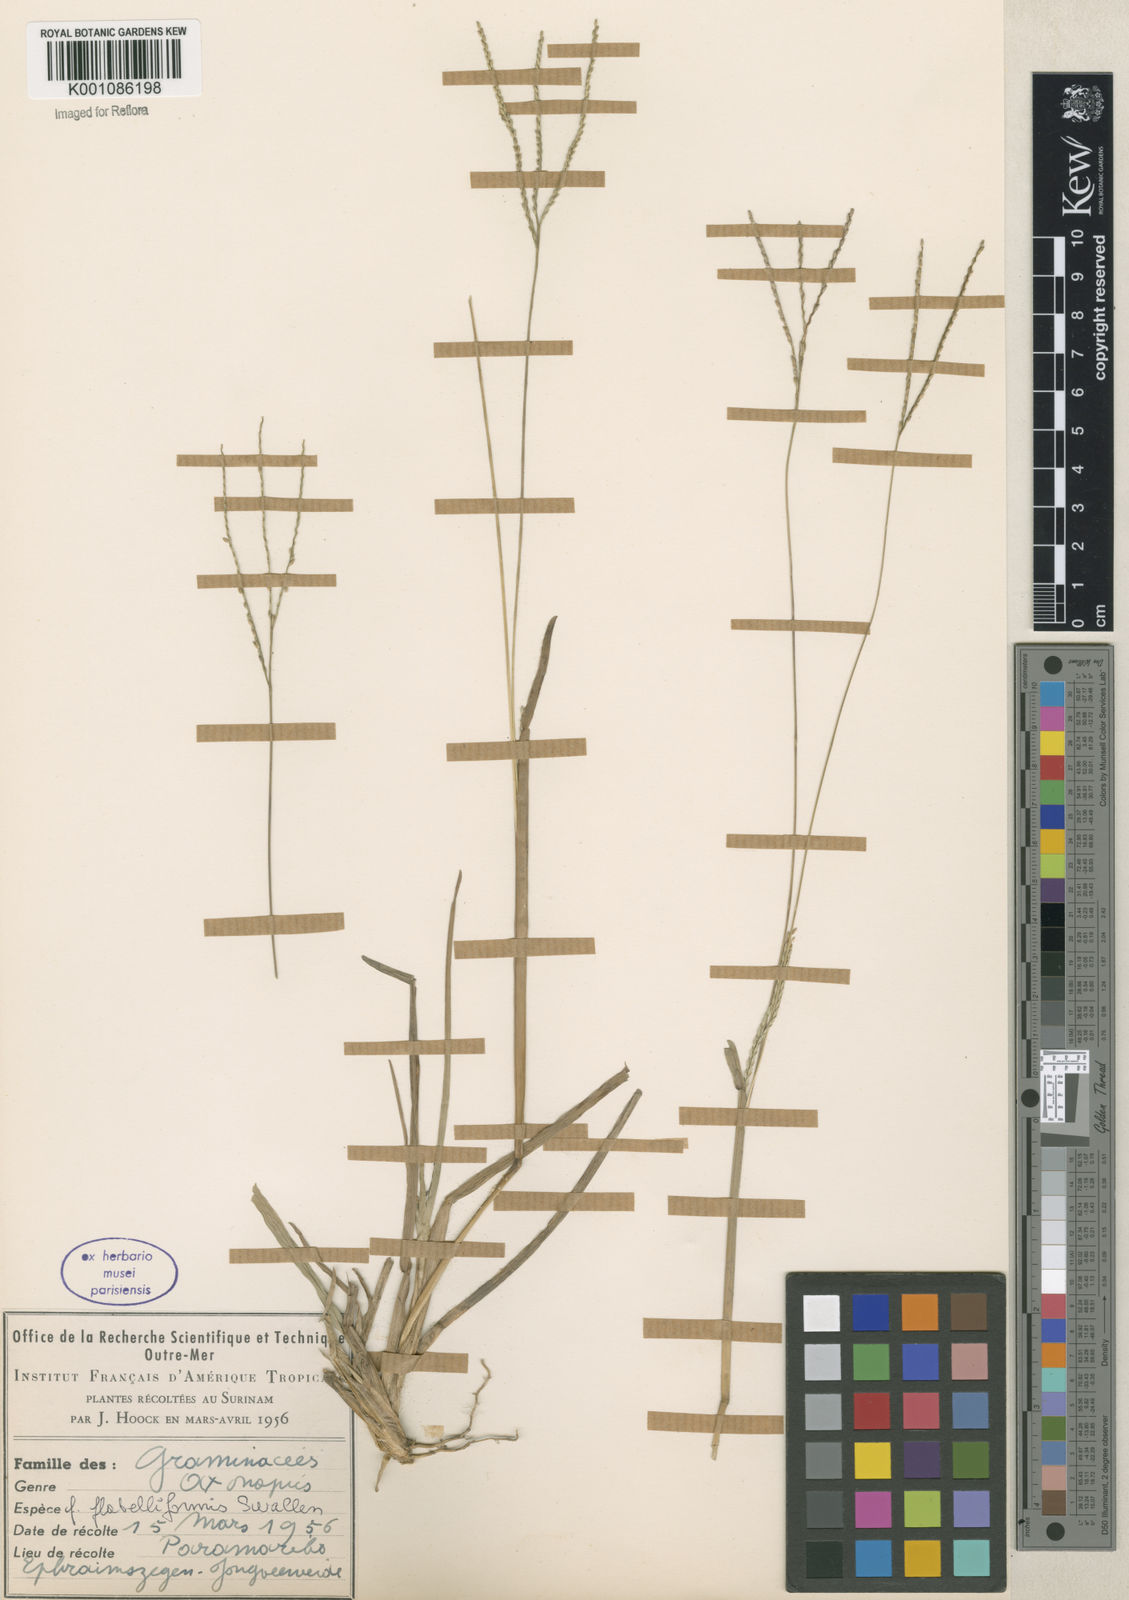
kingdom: Plantae
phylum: Tracheophyta
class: Liliopsida
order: Poales
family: Poaceae
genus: Axonopus
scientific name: Axonopus
